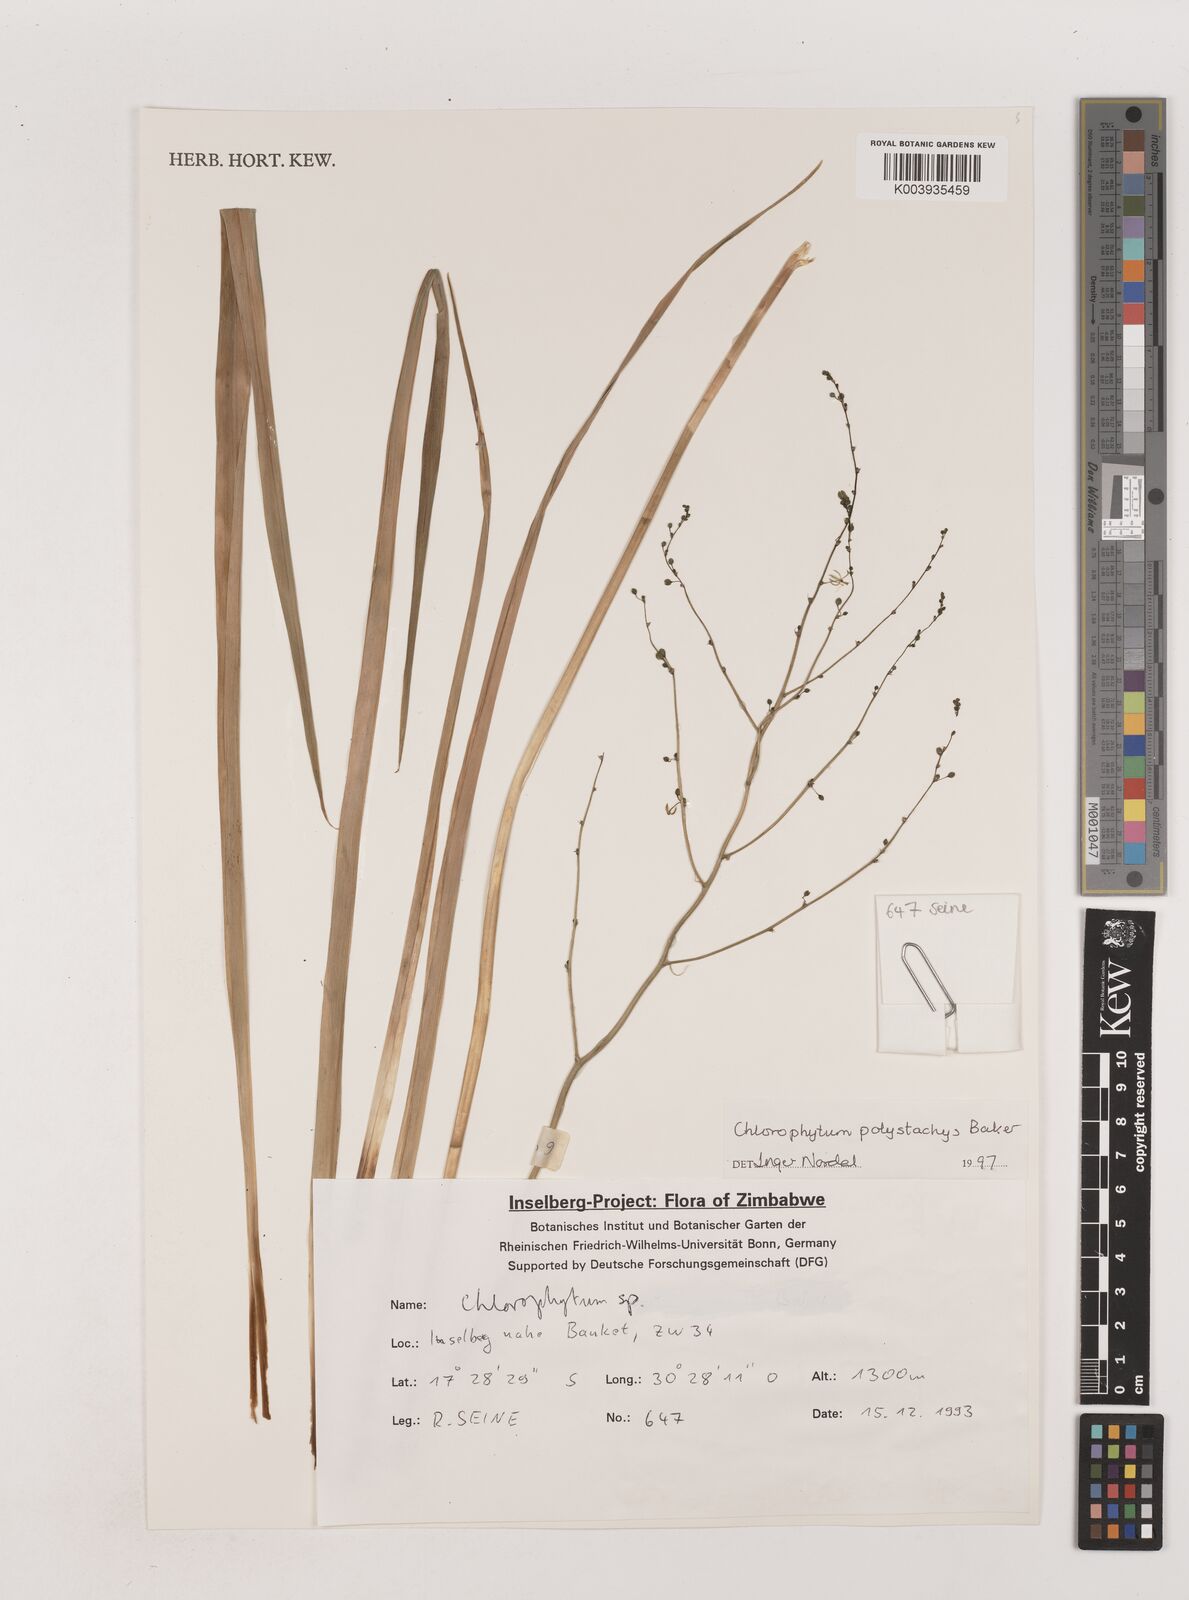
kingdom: Plantae
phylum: Tracheophyta
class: Liliopsida
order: Asparagales
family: Asparagaceae
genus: Chlorophytum
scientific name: Chlorophytum polystachys
